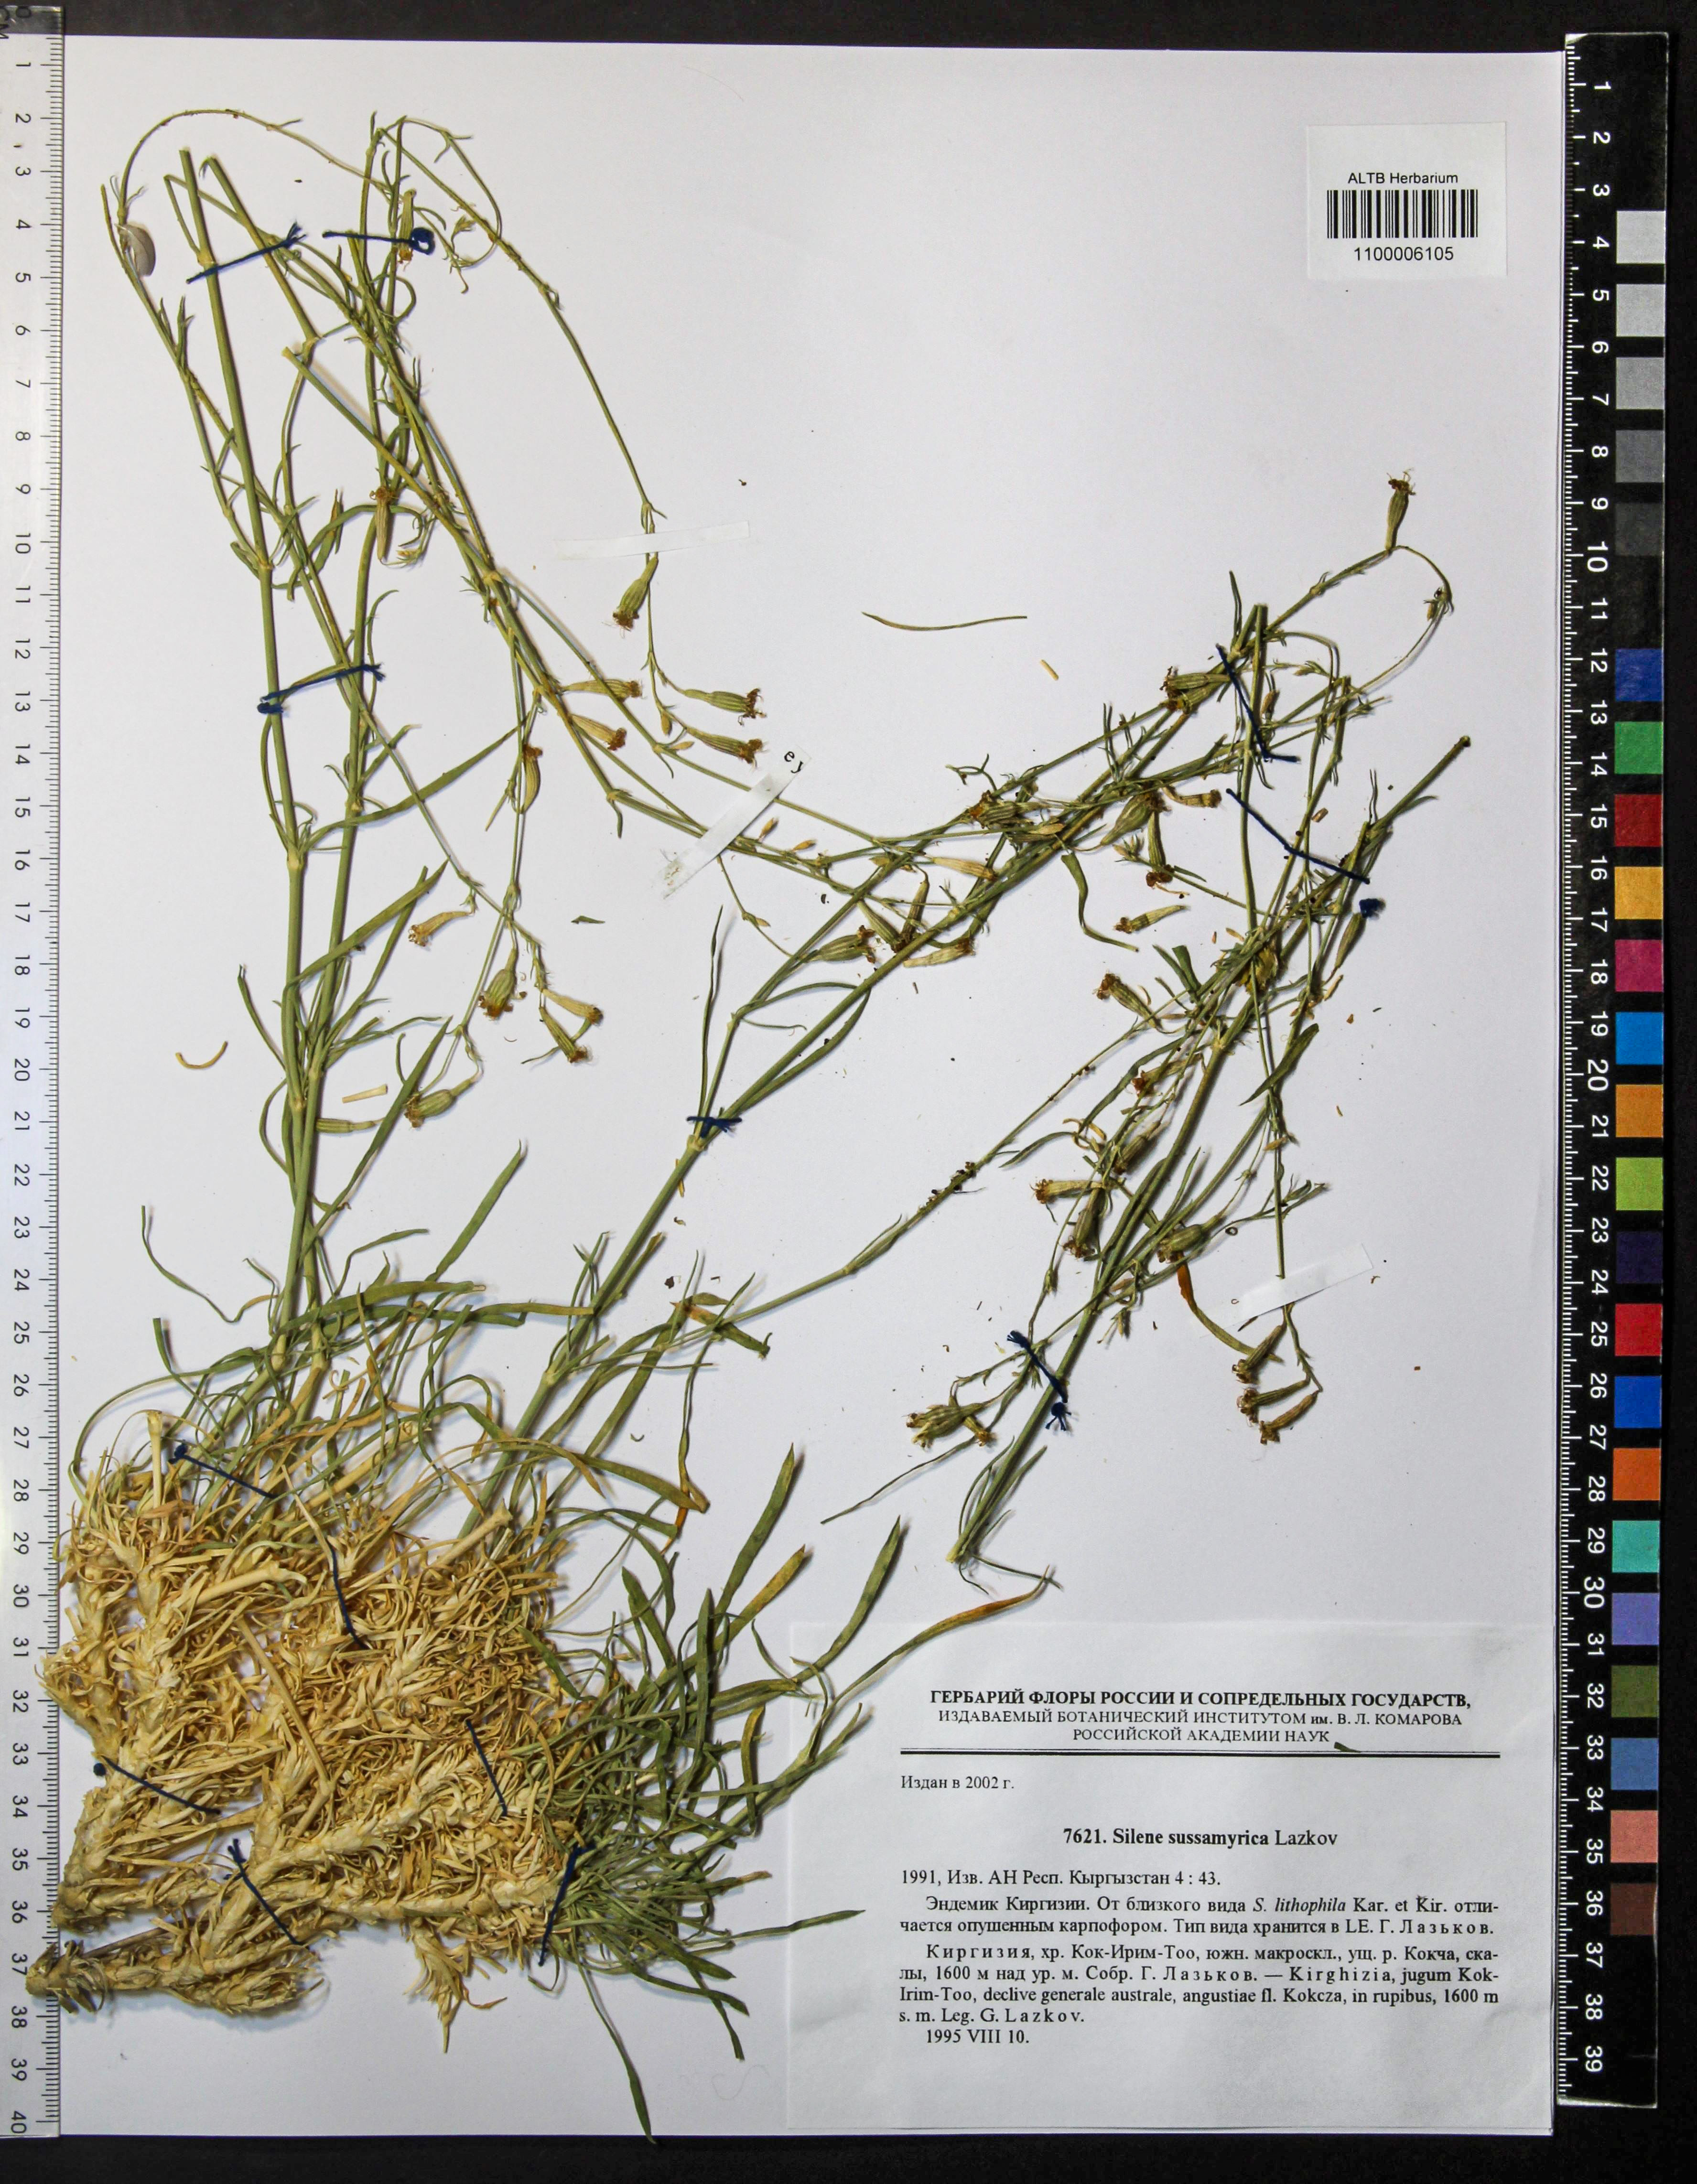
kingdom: Plantae
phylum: Tracheophyta
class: Magnoliopsida
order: Caryophyllales
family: Caryophyllaceae
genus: Silene
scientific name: Silene sussamyrica
